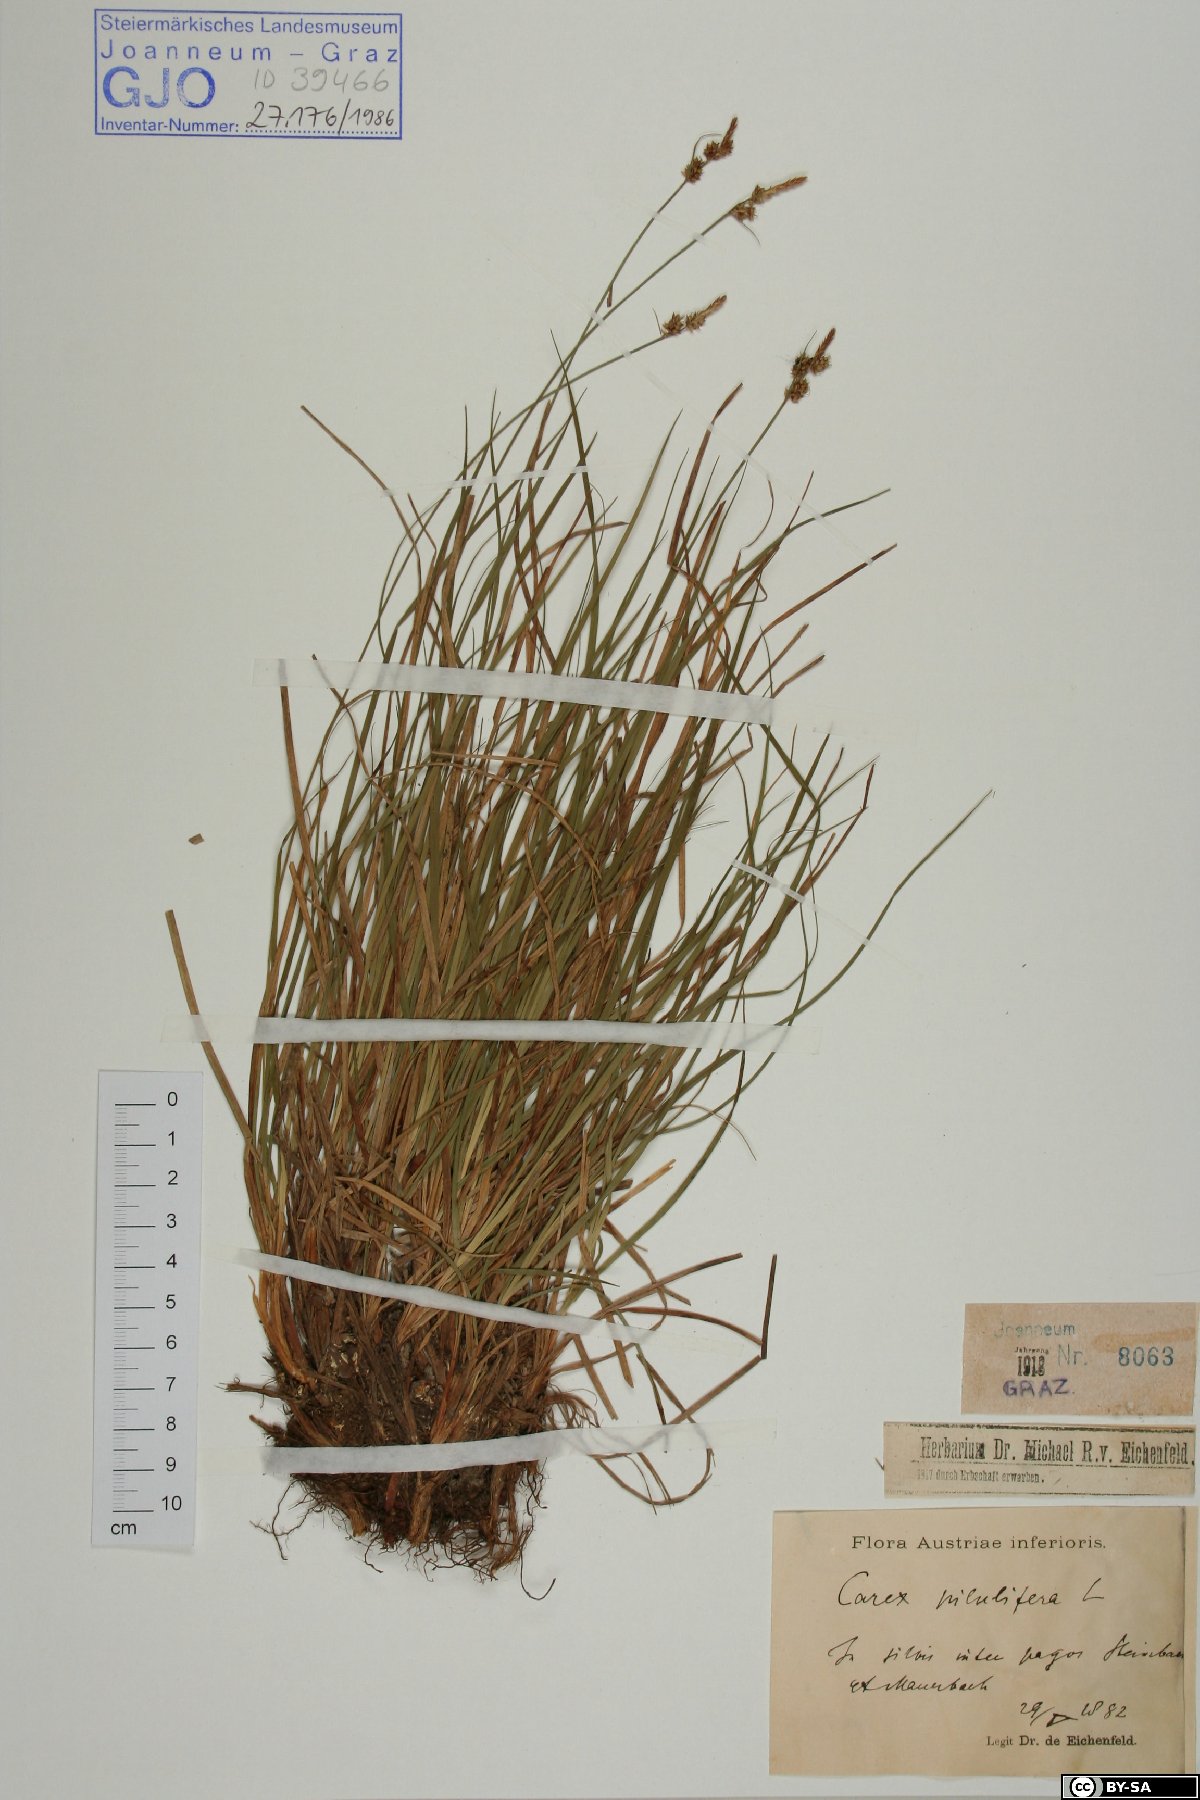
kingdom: Plantae
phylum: Tracheophyta
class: Liliopsida
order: Poales
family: Cyperaceae
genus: Carex
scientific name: Carex pilulifera
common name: Pill sedge
